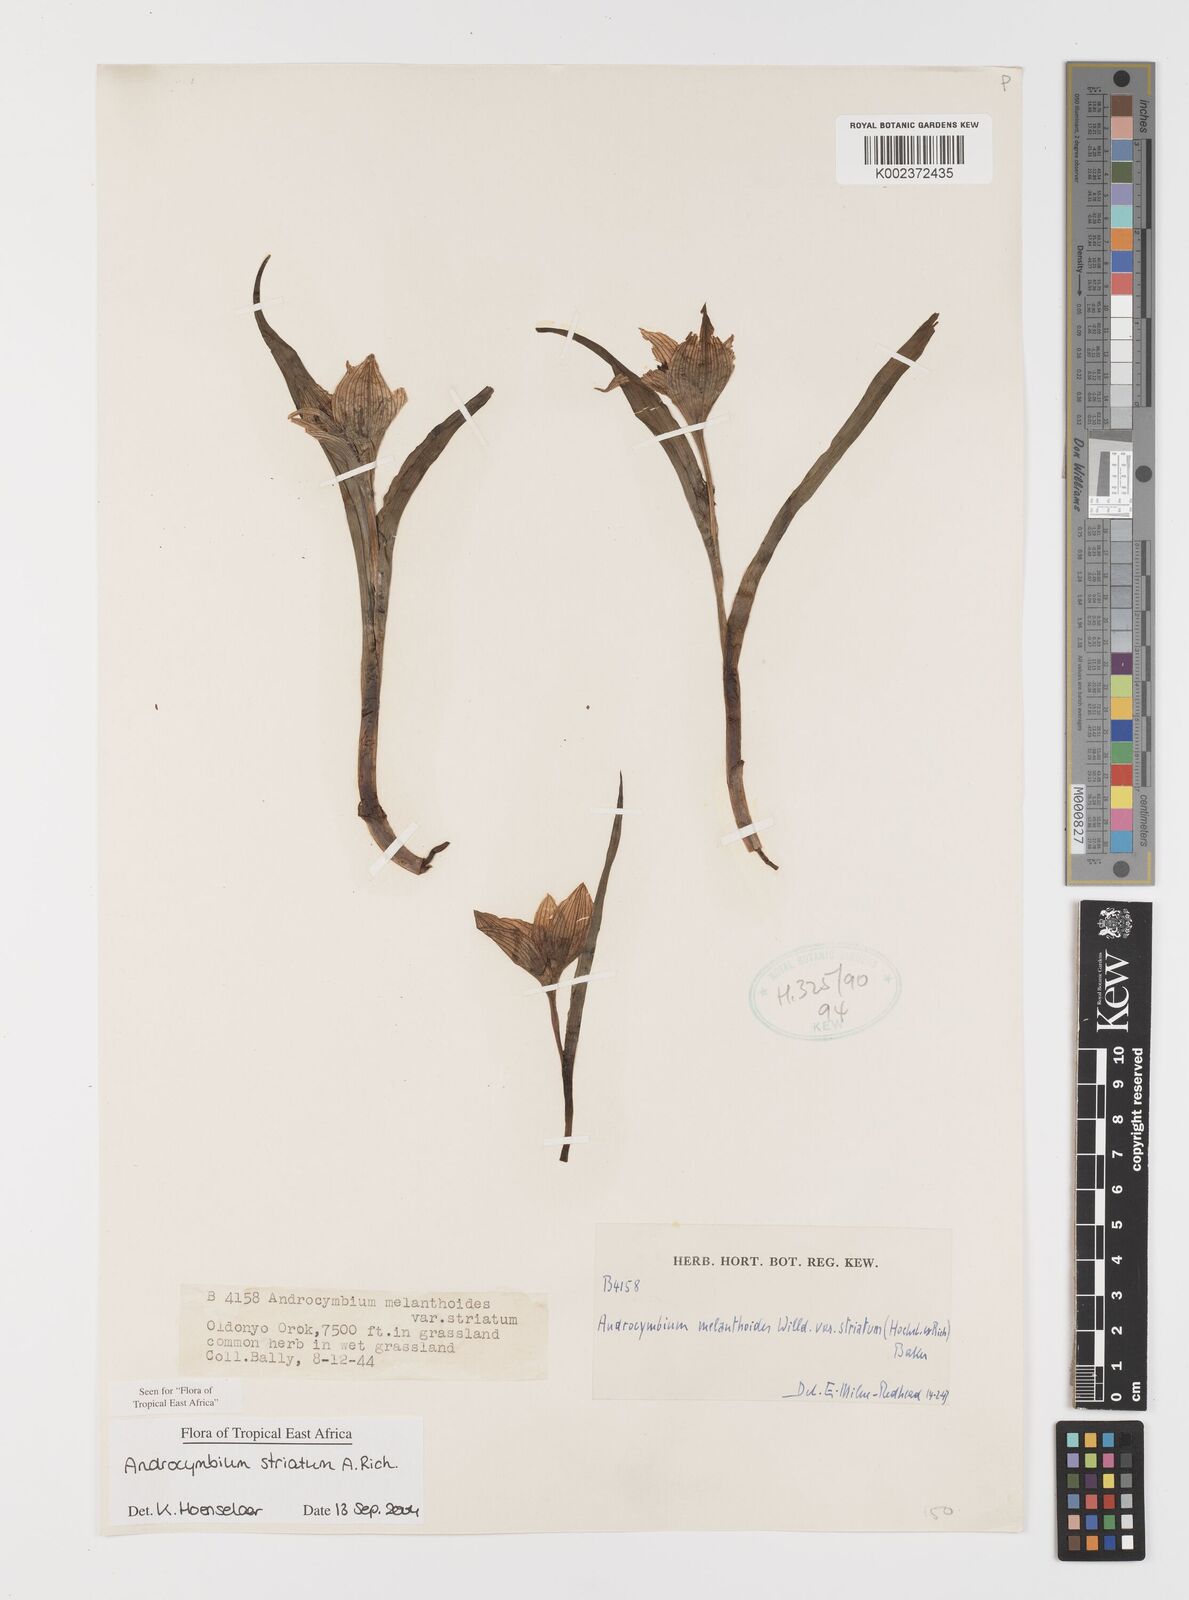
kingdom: Plantae
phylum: Tracheophyta
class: Liliopsida
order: Liliales
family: Colchicaceae
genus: Colchicum
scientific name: Colchicum striatum
